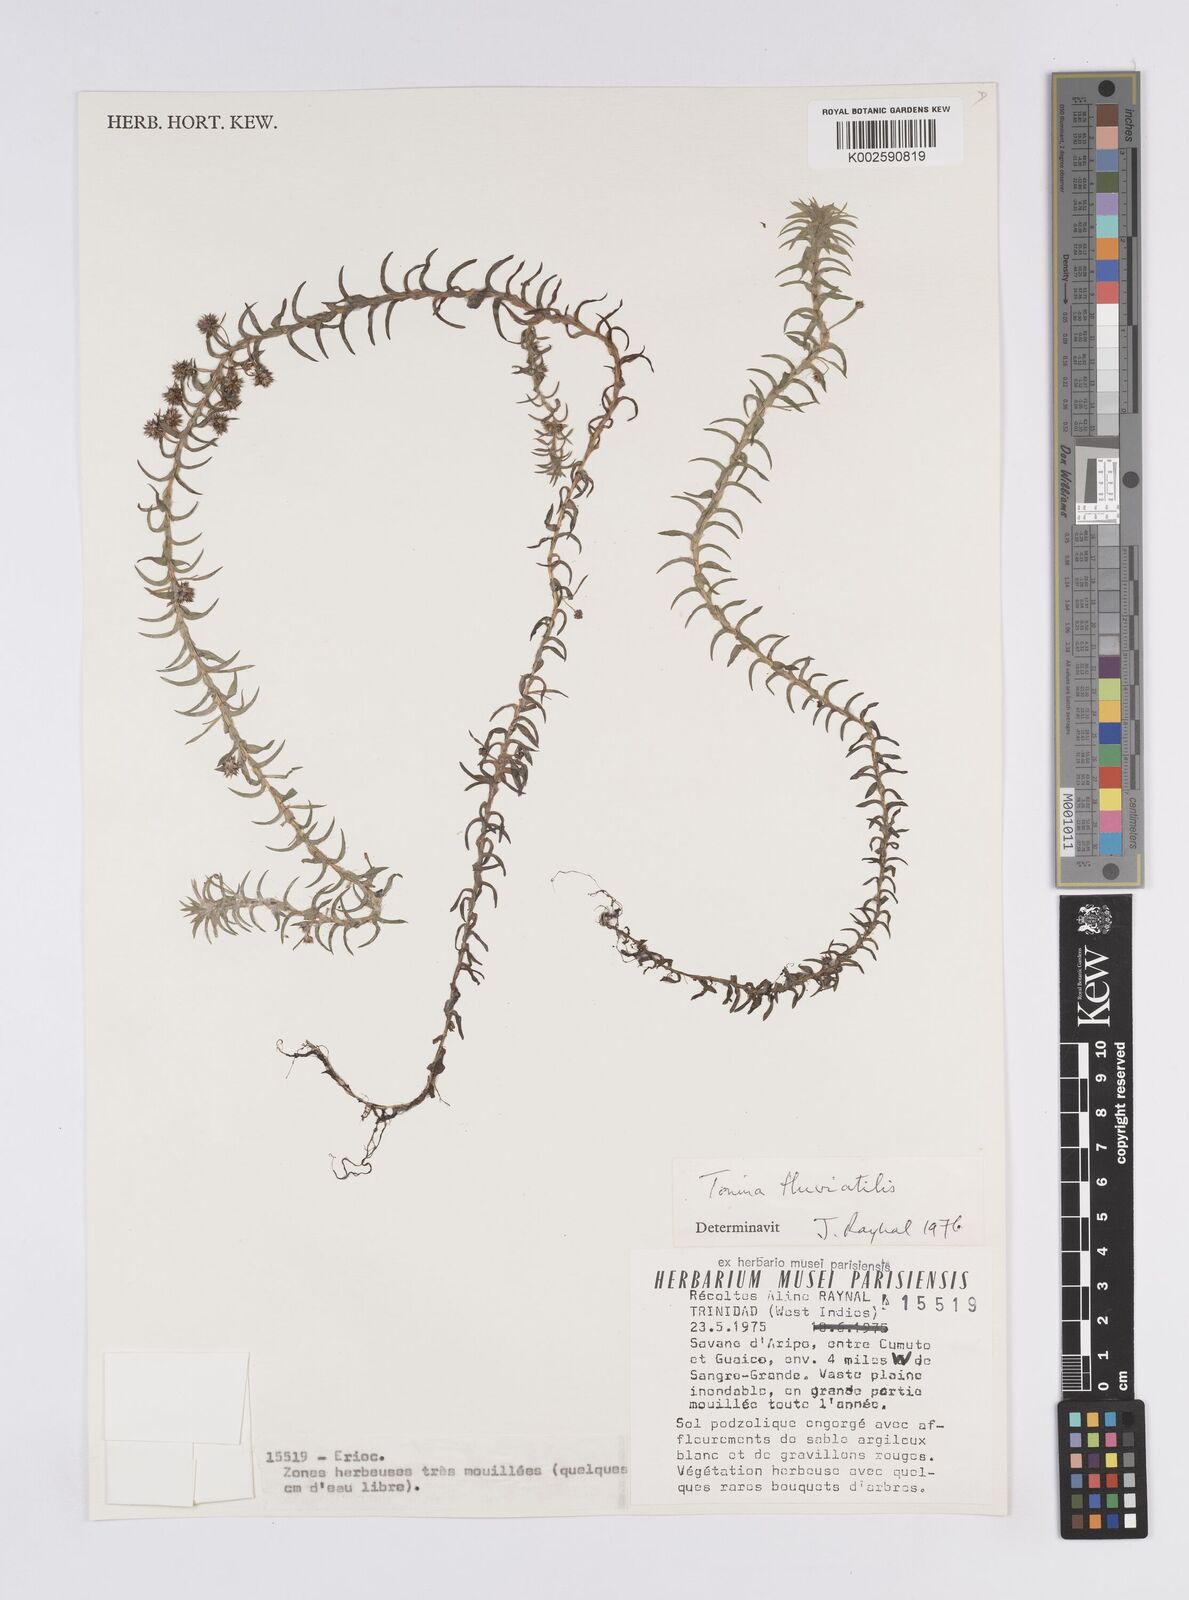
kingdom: Plantae
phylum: Tracheophyta
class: Liliopsida
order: Poales
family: Eriocaulaceae
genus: Paepalanthus
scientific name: Paepalanthus fluviatilis
